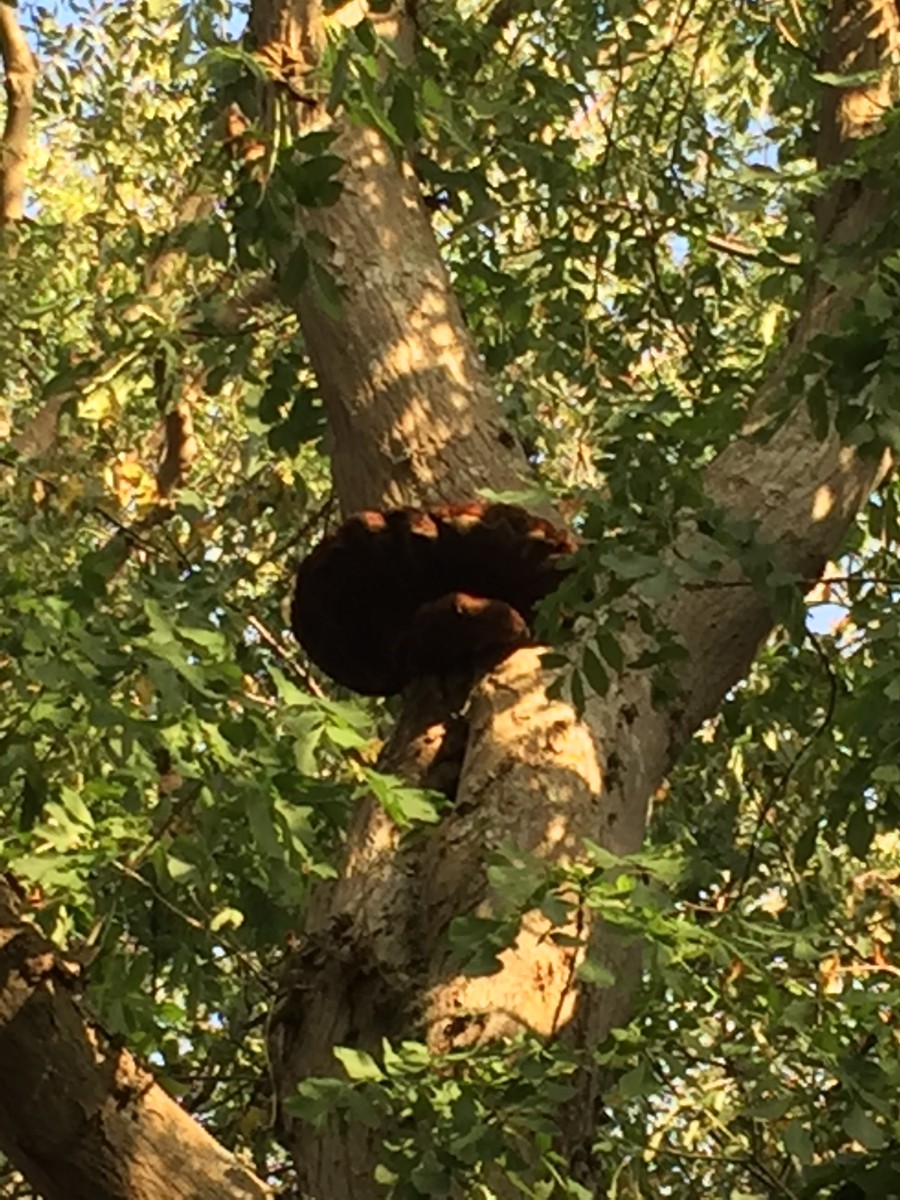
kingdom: Fungi
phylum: Basidiomycota
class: Agaricomycetes
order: Hymenochaetales
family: Hymenochaetaceae
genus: Inonotus
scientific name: Inonotus hispidus
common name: børstehåret spejlporesvamp
